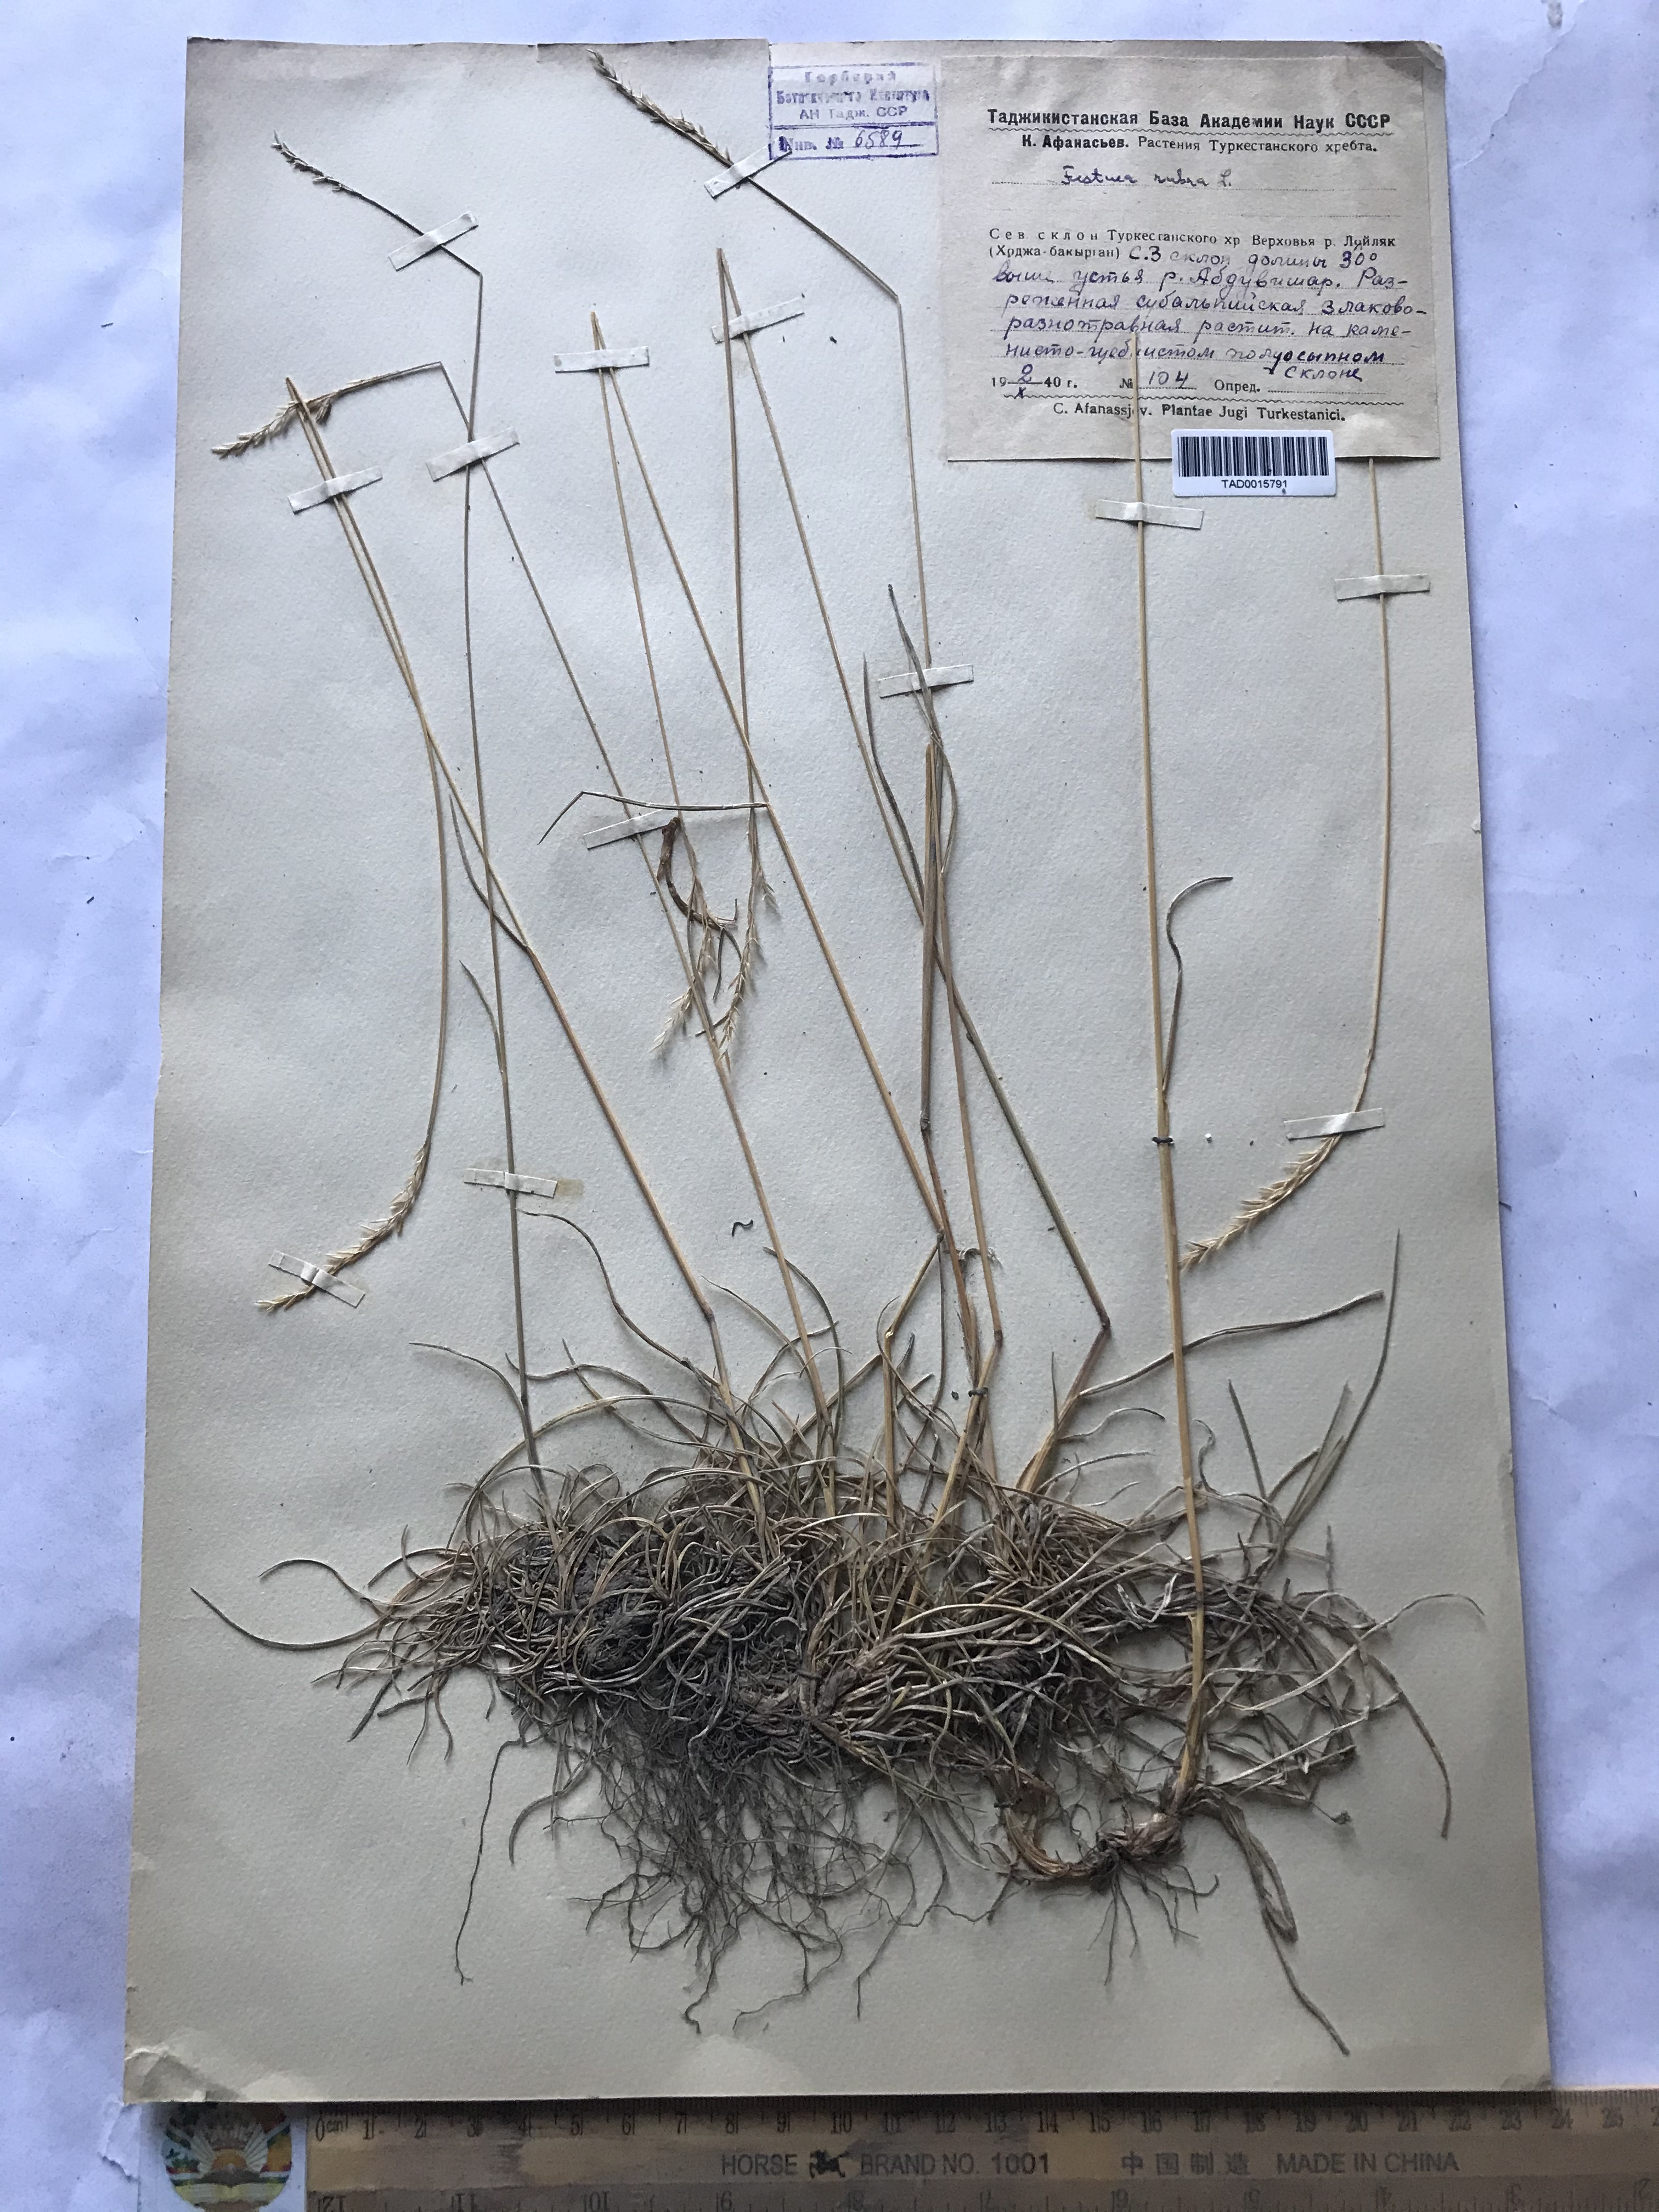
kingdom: Plantae
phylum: Tracheophyta
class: Liliopsida
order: Poales
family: Poaceae
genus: Festuca
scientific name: Festuca rubra
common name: Red fescue
